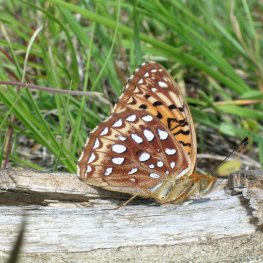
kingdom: Animalia
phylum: Arthropoda
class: Insecta
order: Lepidoptera
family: Nymphalidae
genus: Speyeria
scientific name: Speyeria aphrodite
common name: Aphrodite Fritillary
